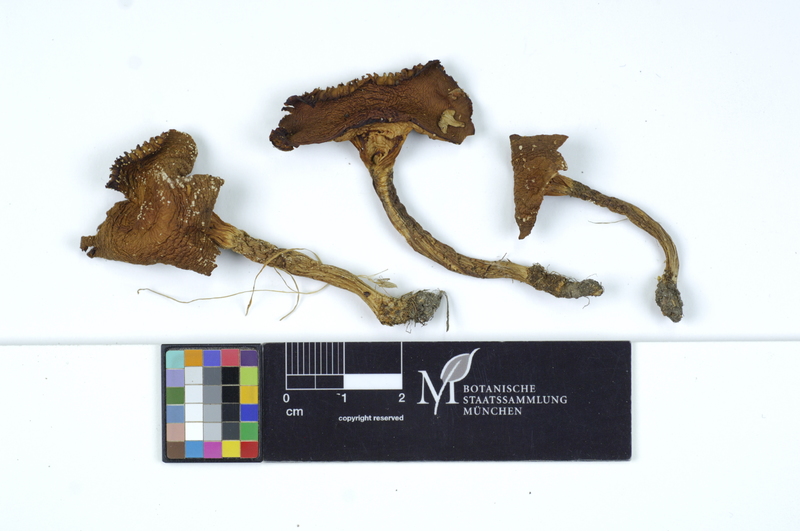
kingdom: Fungi
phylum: Basidiomycota
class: Agaricomycetes
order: Agaricales
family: Hygrophoraceae
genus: Cuphophyllus
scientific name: Cuphophyllus virgineus
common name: Snowy waxcap
